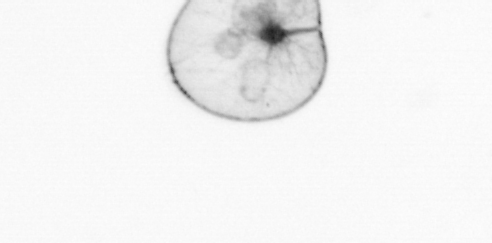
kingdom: Chromista
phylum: Myzozoa
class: Dinophyceae
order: Noctilucales
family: Noctilucaceae
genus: Noctiluca
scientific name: Noctiluca scintillans
